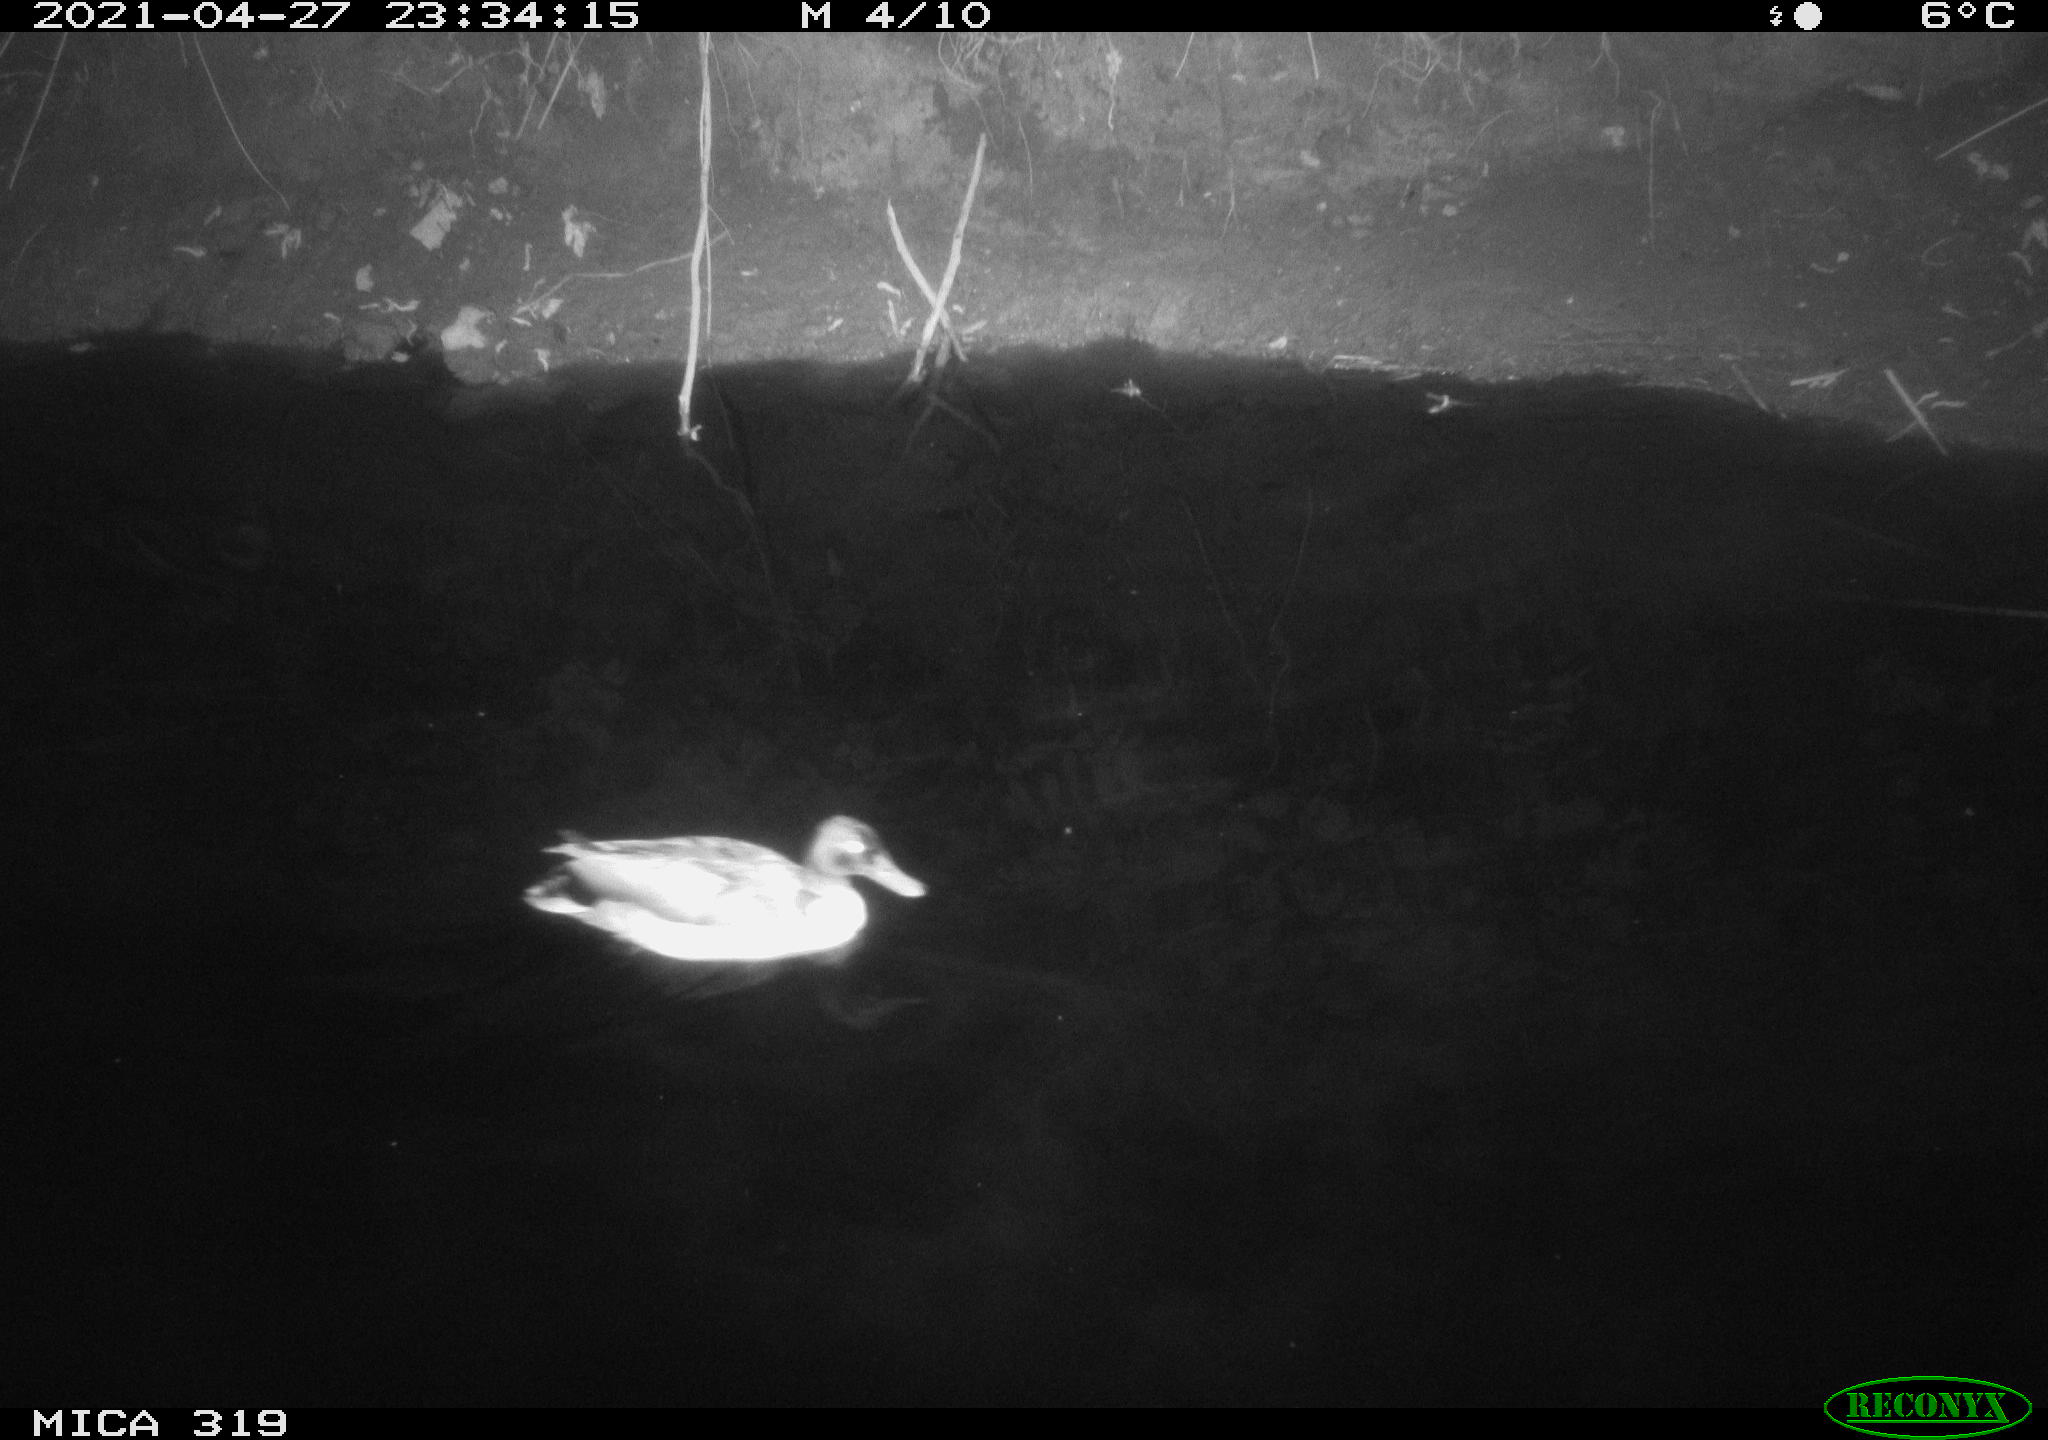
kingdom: Animalia
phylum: Chordata
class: Aves
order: Anseriformes
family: Anatidae
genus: Anas
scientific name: Anas platyrhynchos
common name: Mallard
